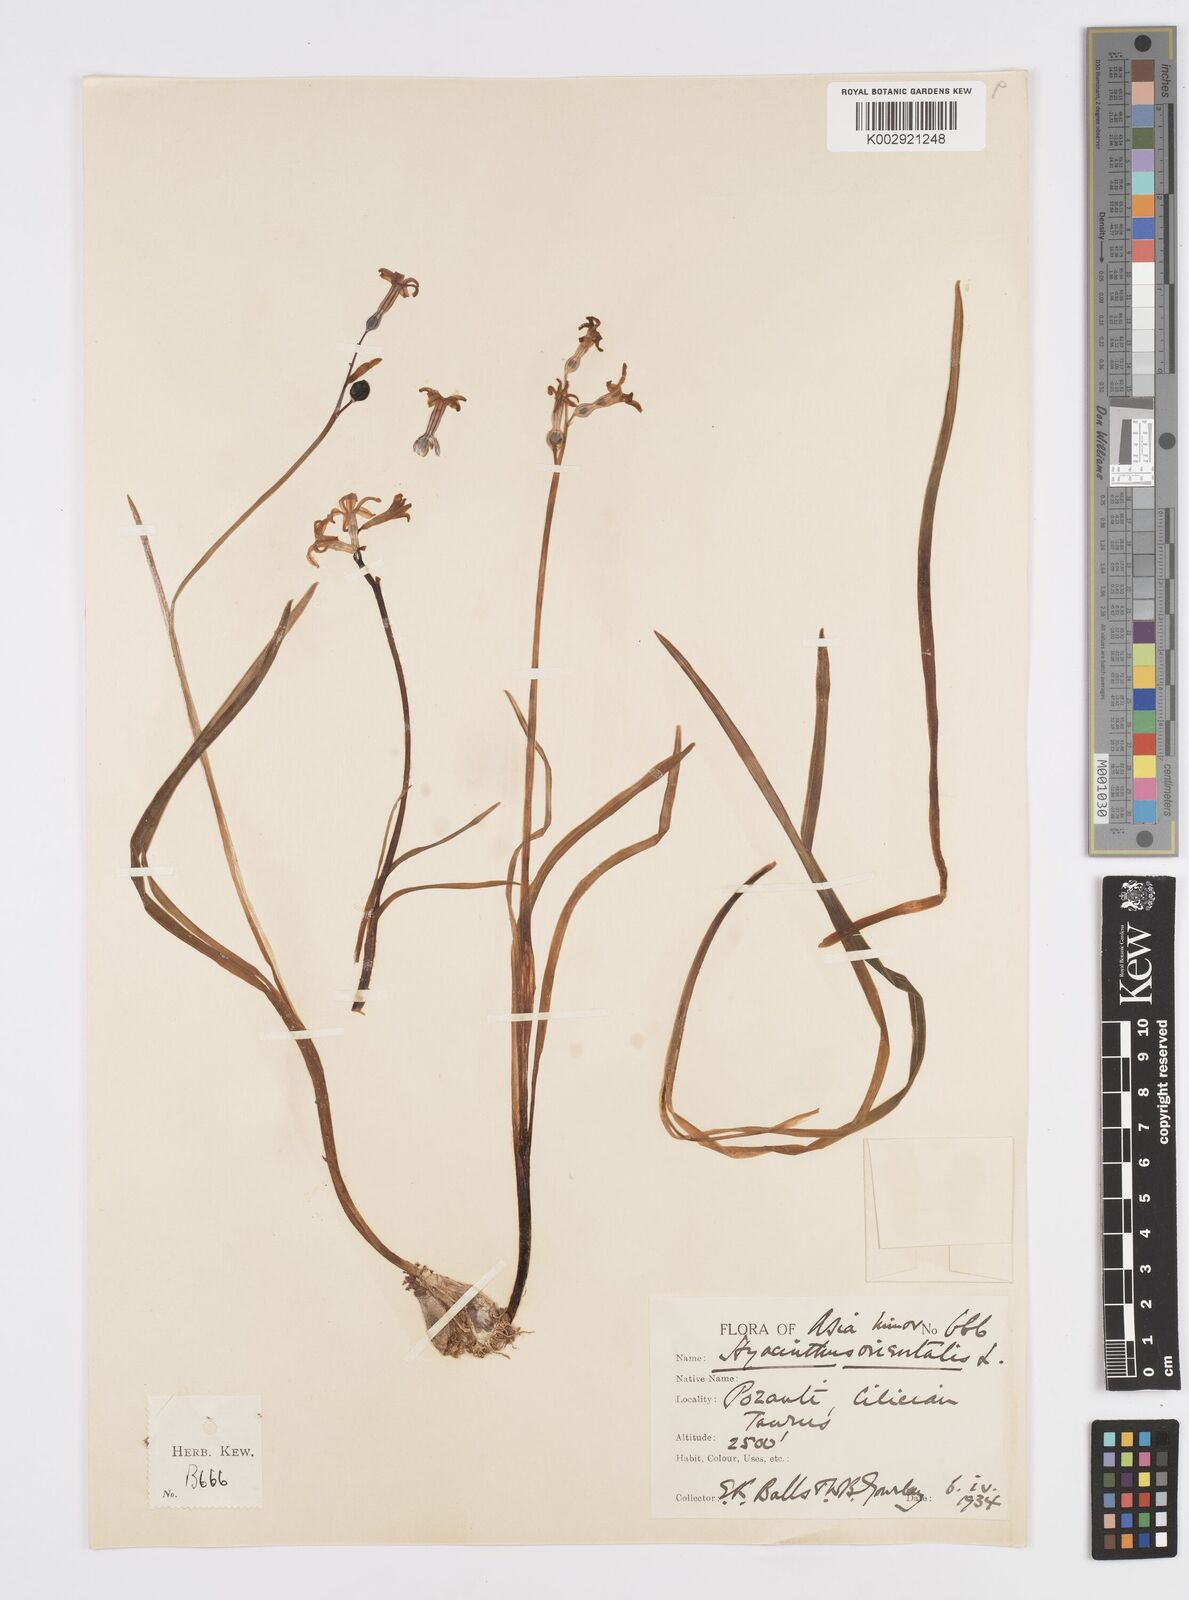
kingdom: Plantae
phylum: Tracheophyta
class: Liliopsida
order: Asparagales
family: Asparagaceae
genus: Hyacinthus
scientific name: Hyacinthus orientalis
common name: Hyacinth
